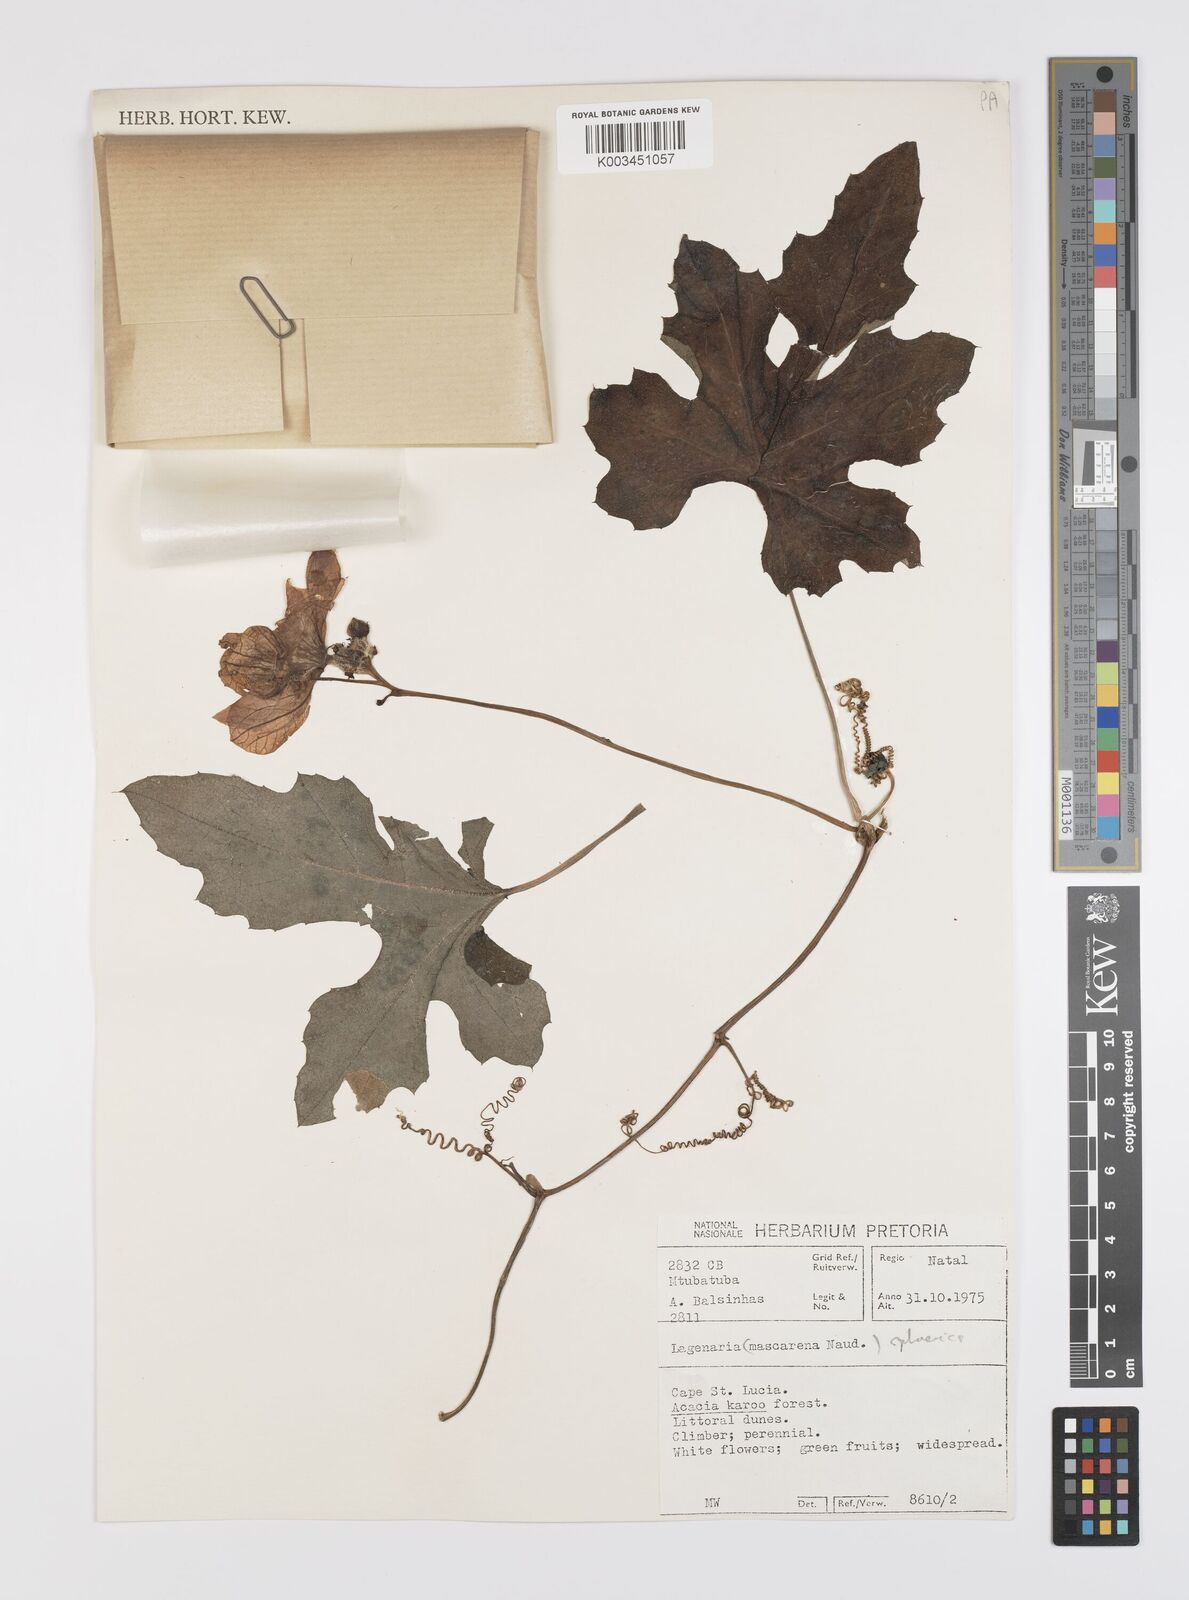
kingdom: Plantae
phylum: Tracheophyta
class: Magnoliopsida
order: Cucurbitales
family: Cucurbitaceae
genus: Lagenaria
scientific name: Lagenaria sphaerica
